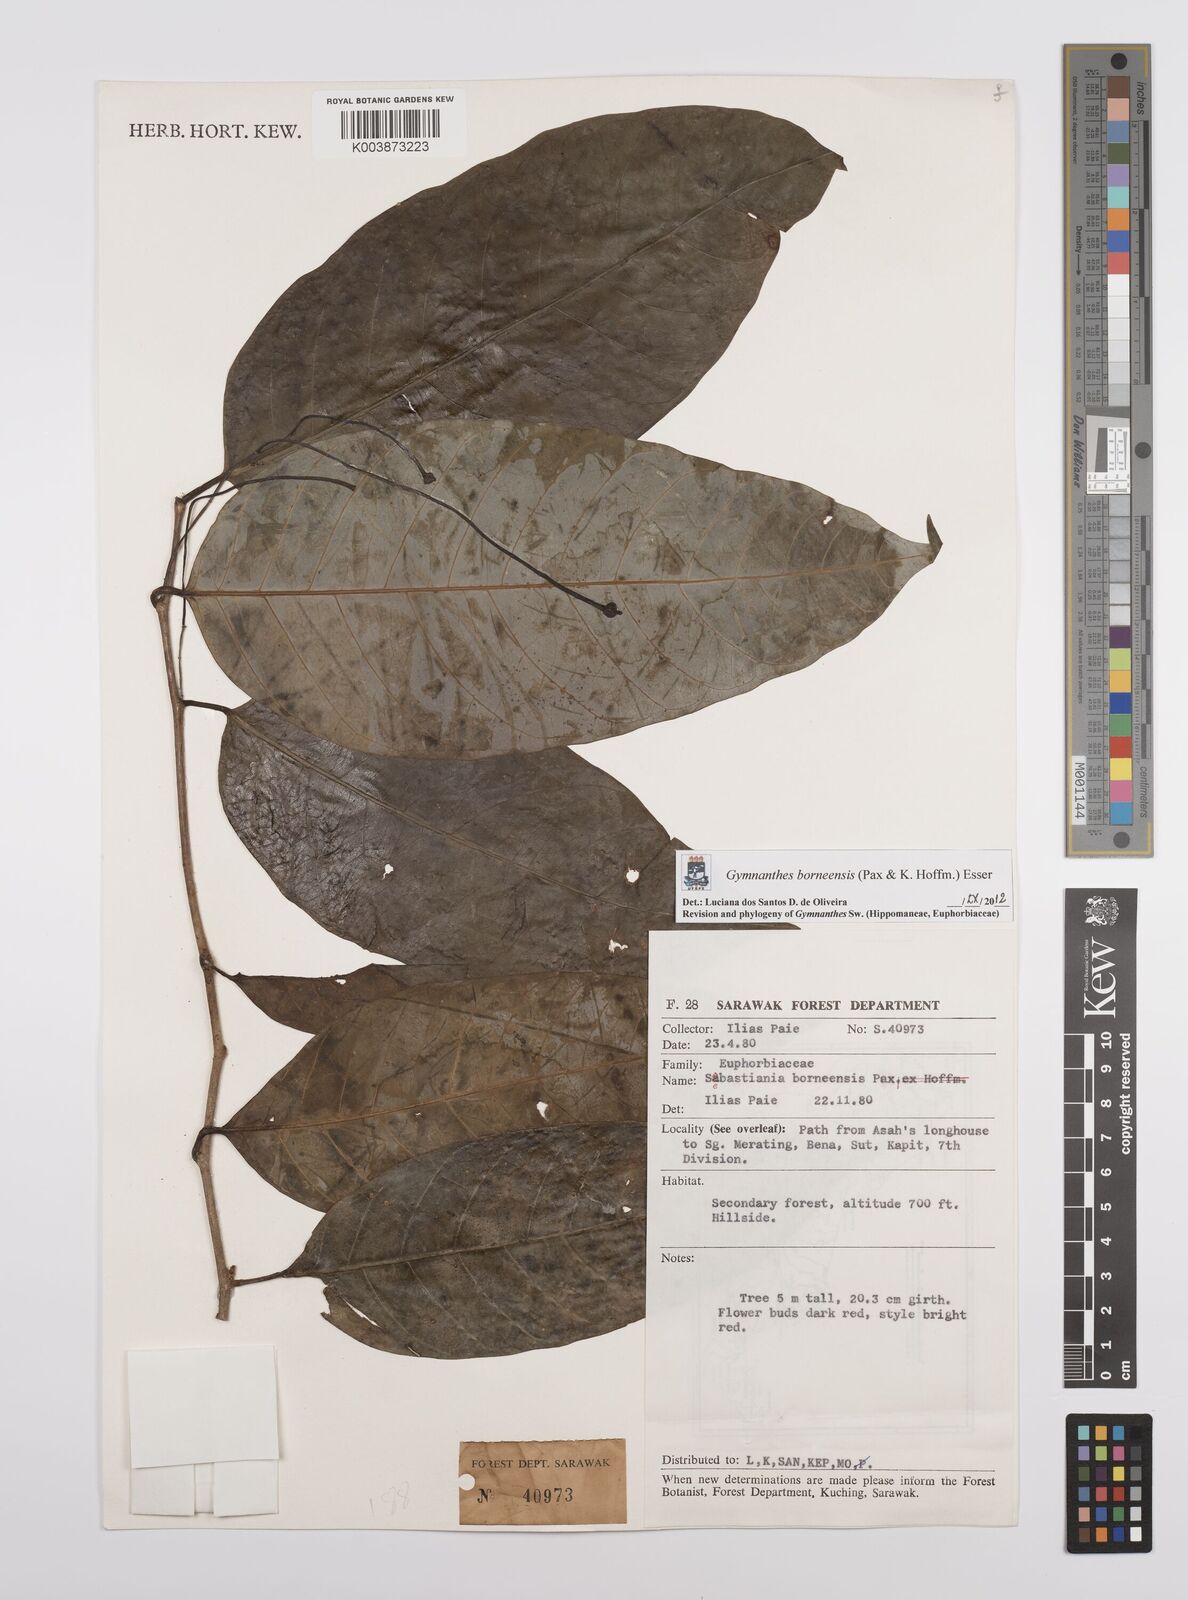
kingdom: Plantae
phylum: Tracheophyta
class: Magnoliopsida
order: Malpighiales
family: Euphorbiaceae
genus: Gymnanthes
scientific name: Gymnanthes borneensis
